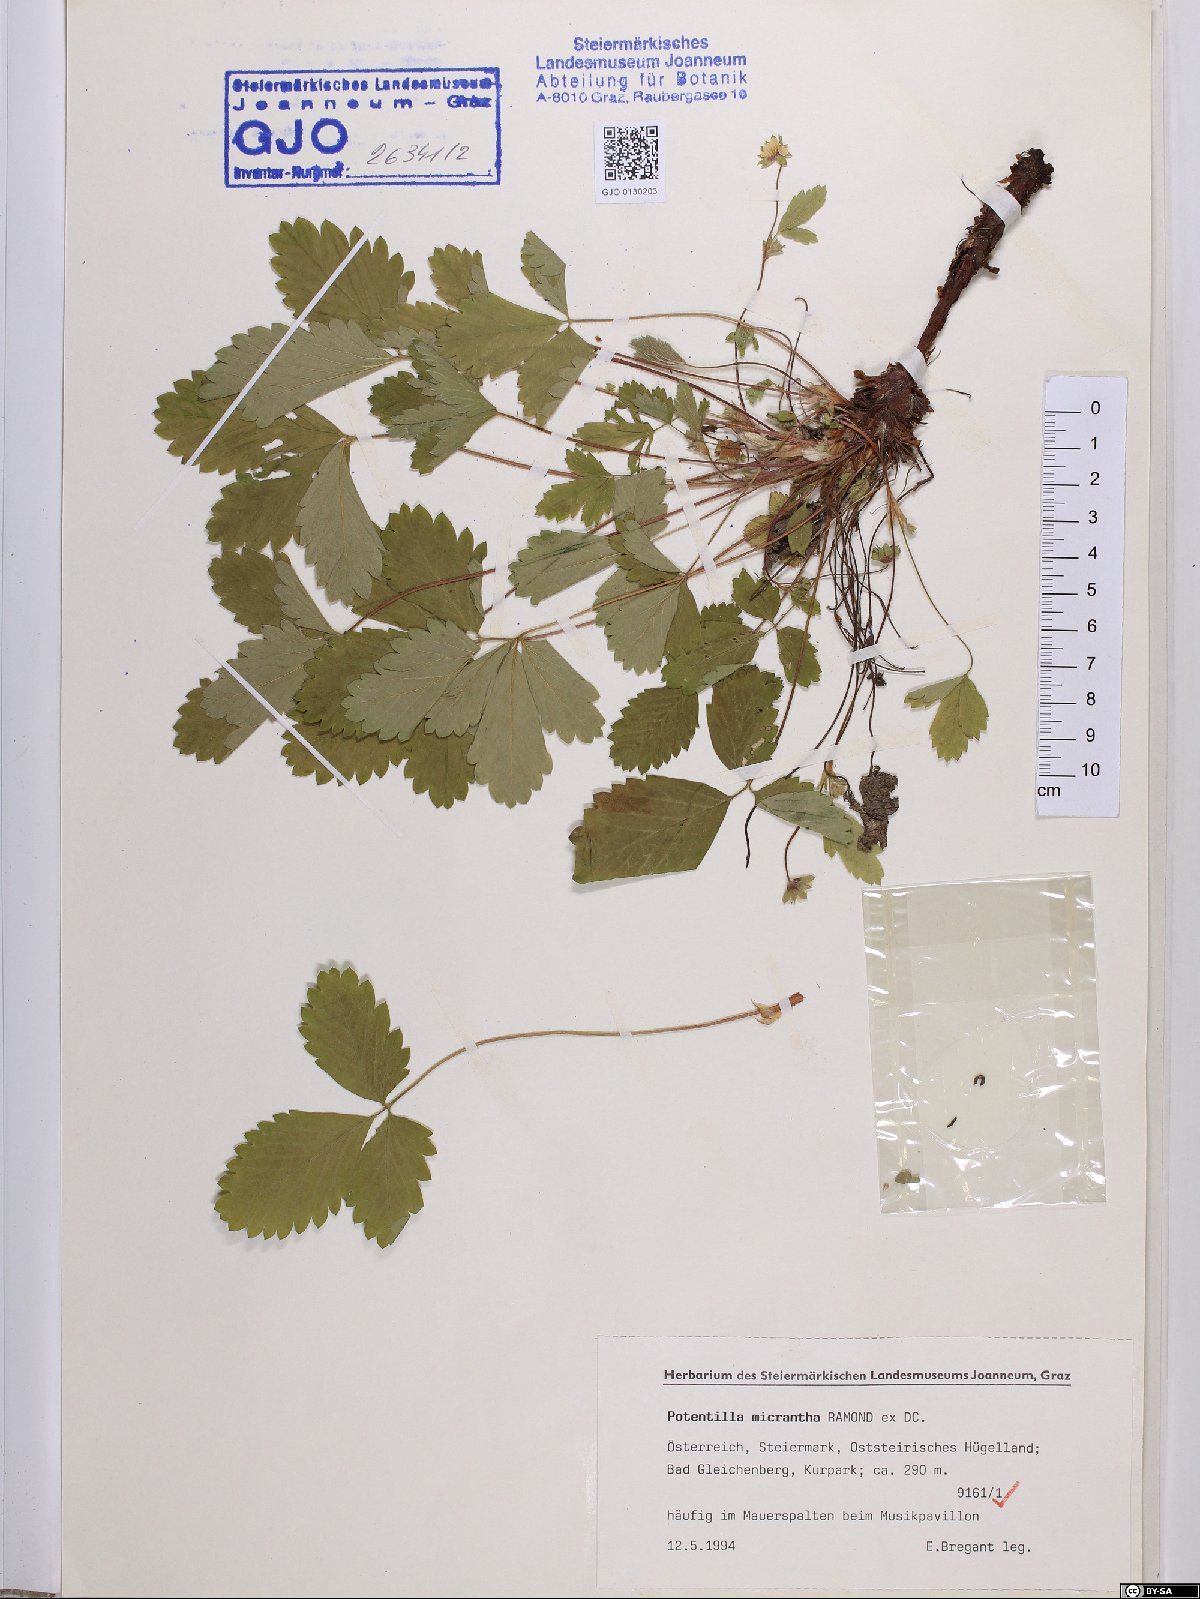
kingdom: Plantae
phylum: Tracheophyta
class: Magnoliopsida
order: Rosales
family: Rosaceae
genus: Potentilla
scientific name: Potentilla micrantha
